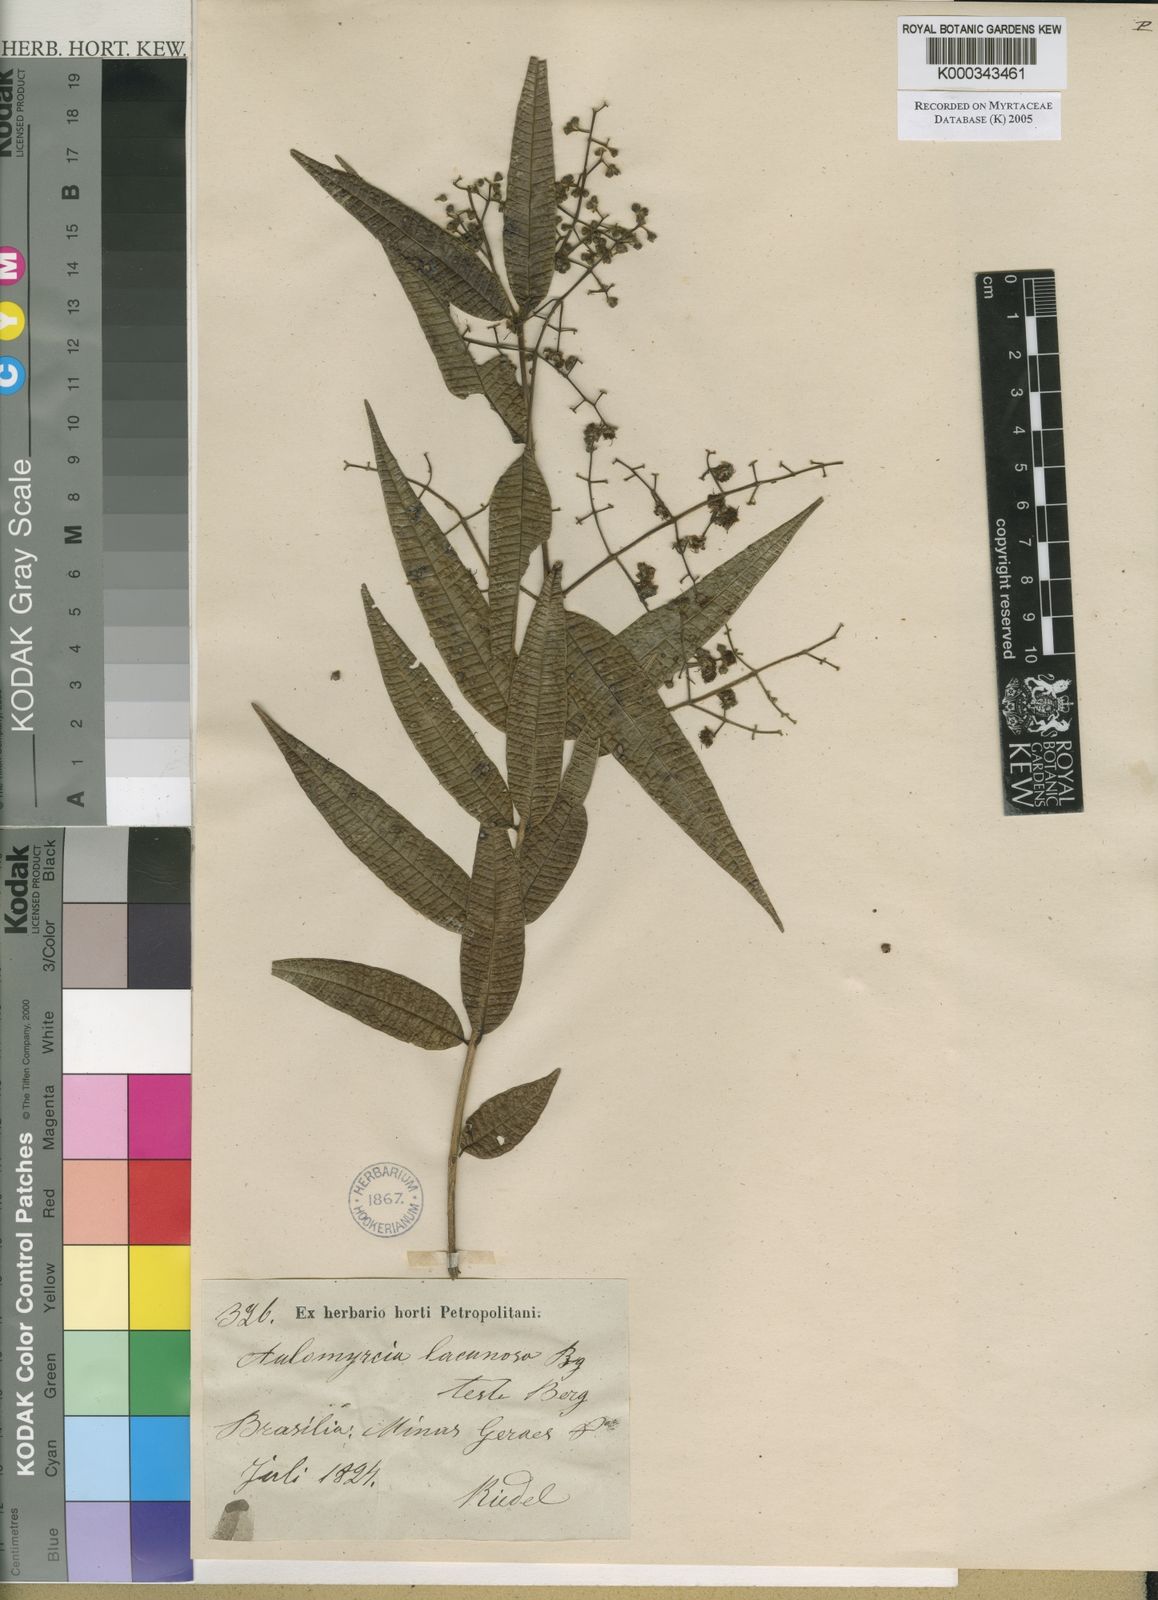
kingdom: Plantae
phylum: Tracheophyta
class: Magnoliopsida
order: Myrtales
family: Myrtaceae
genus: Myrcia
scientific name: Myrcia lacunosa
